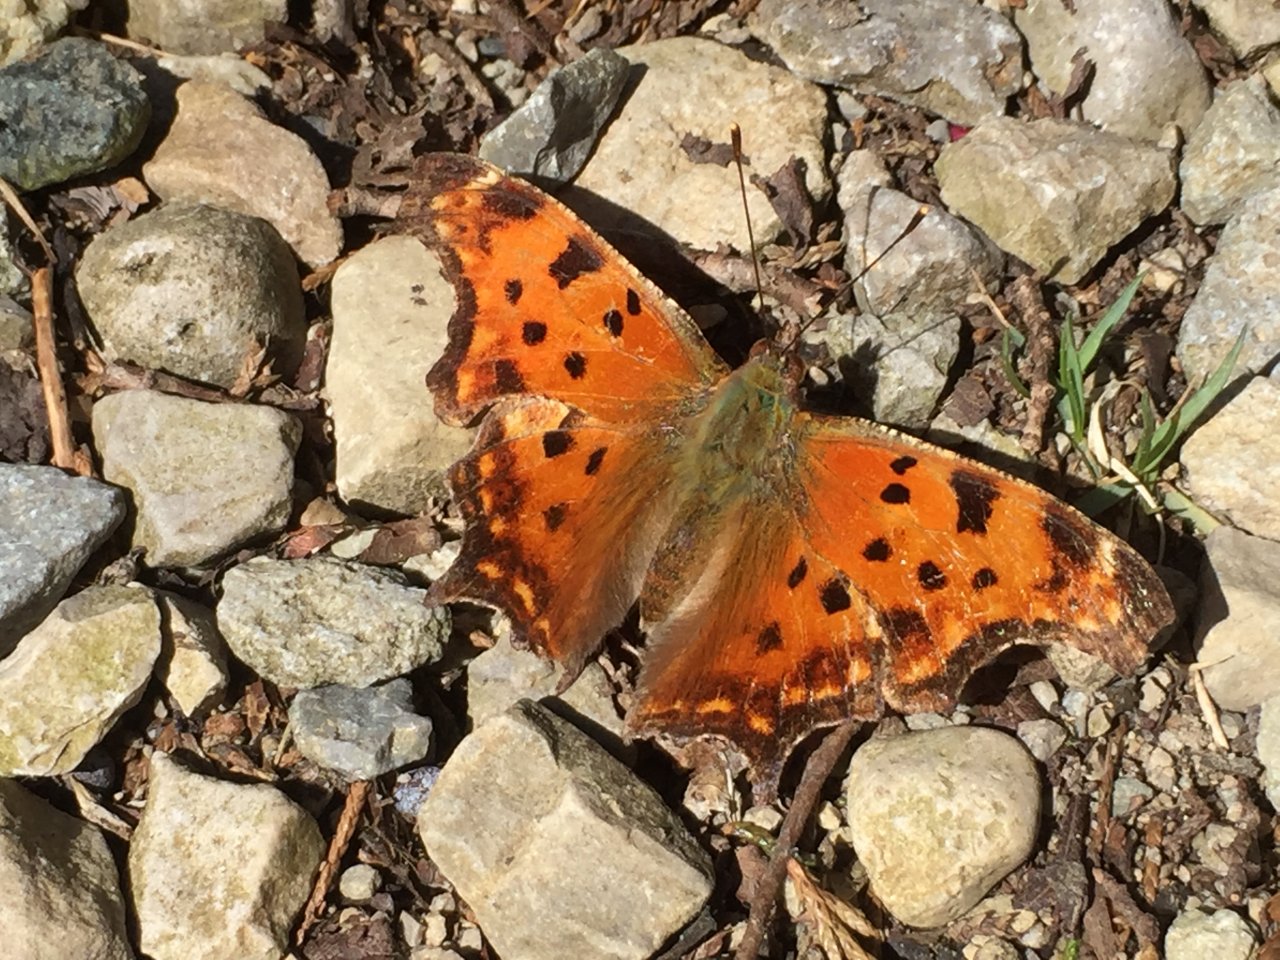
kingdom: Animalia
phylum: Arthropoda
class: Insecta
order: Lepidoptera
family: Nymphalidae
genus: Polygonia
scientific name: Polygonia comma
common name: Eastern Comma
